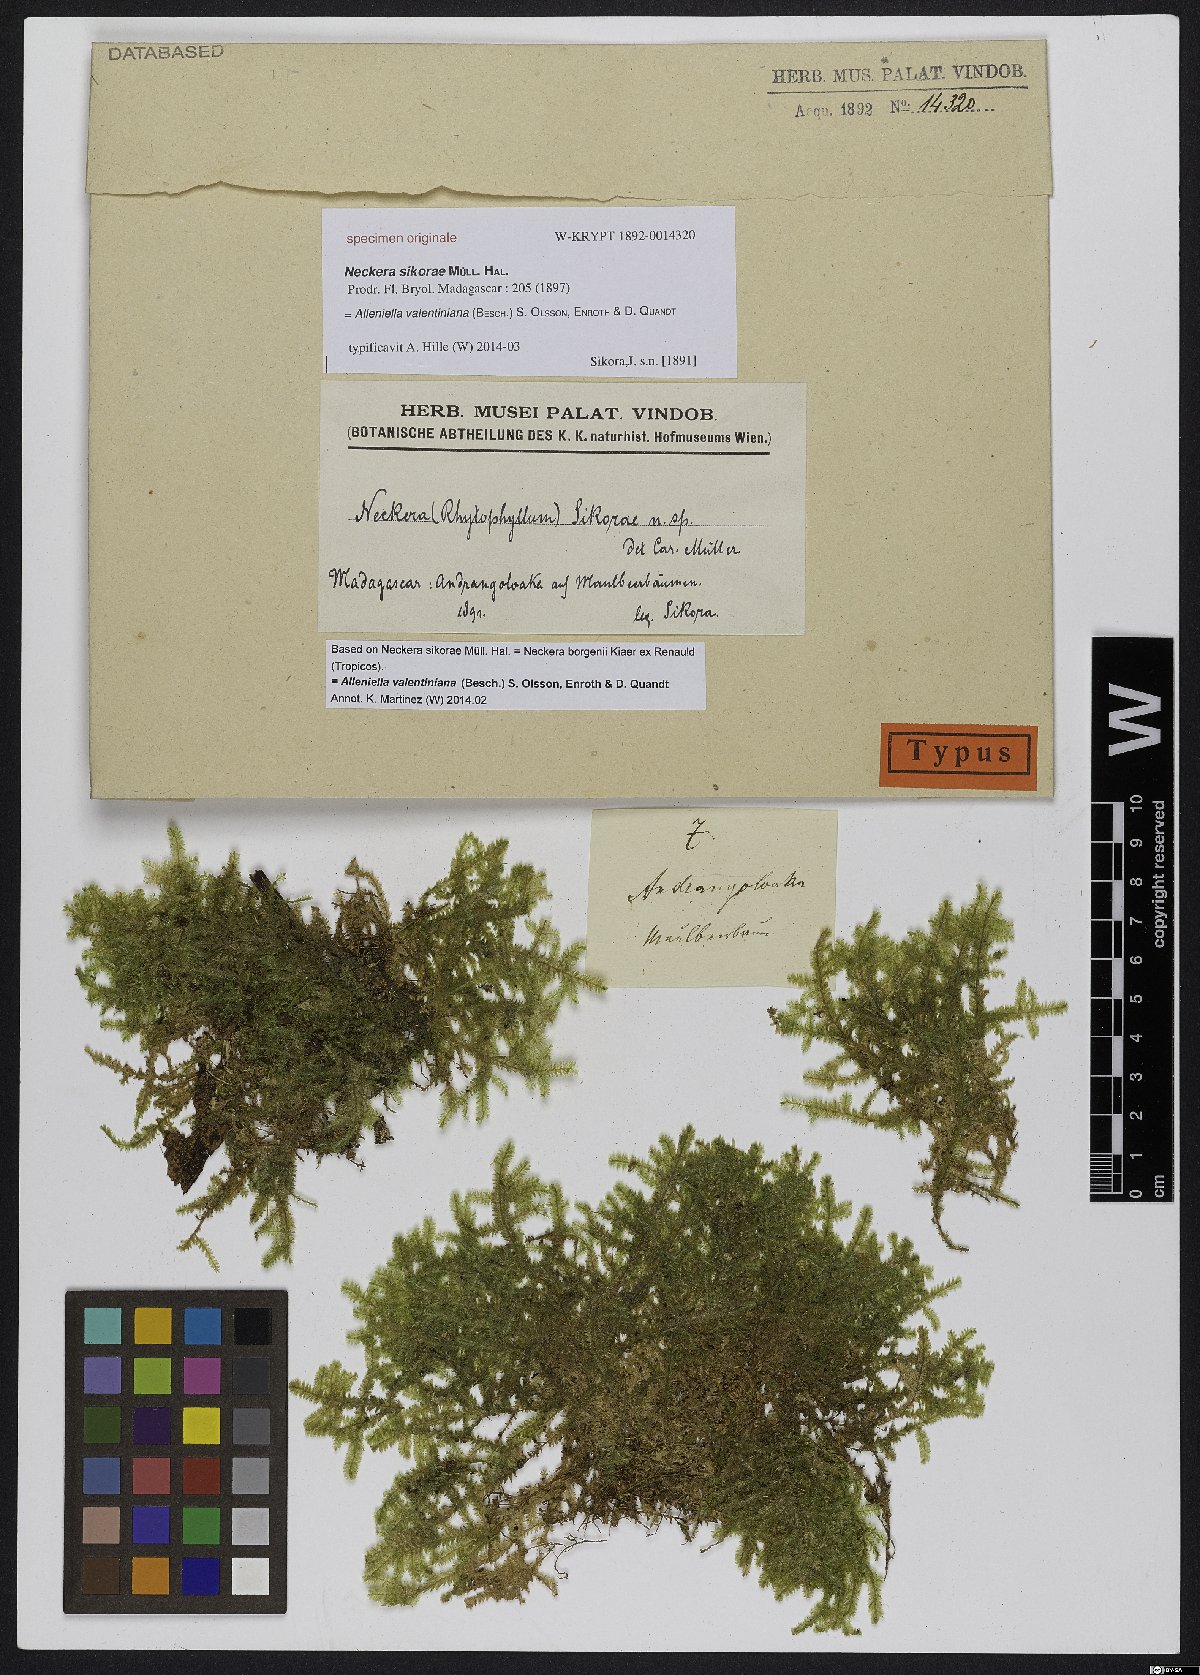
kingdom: Plantae
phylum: Bryophyta
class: Bryopsida
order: Hypnales
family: Neckeraceae
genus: Neckera
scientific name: Neckera
